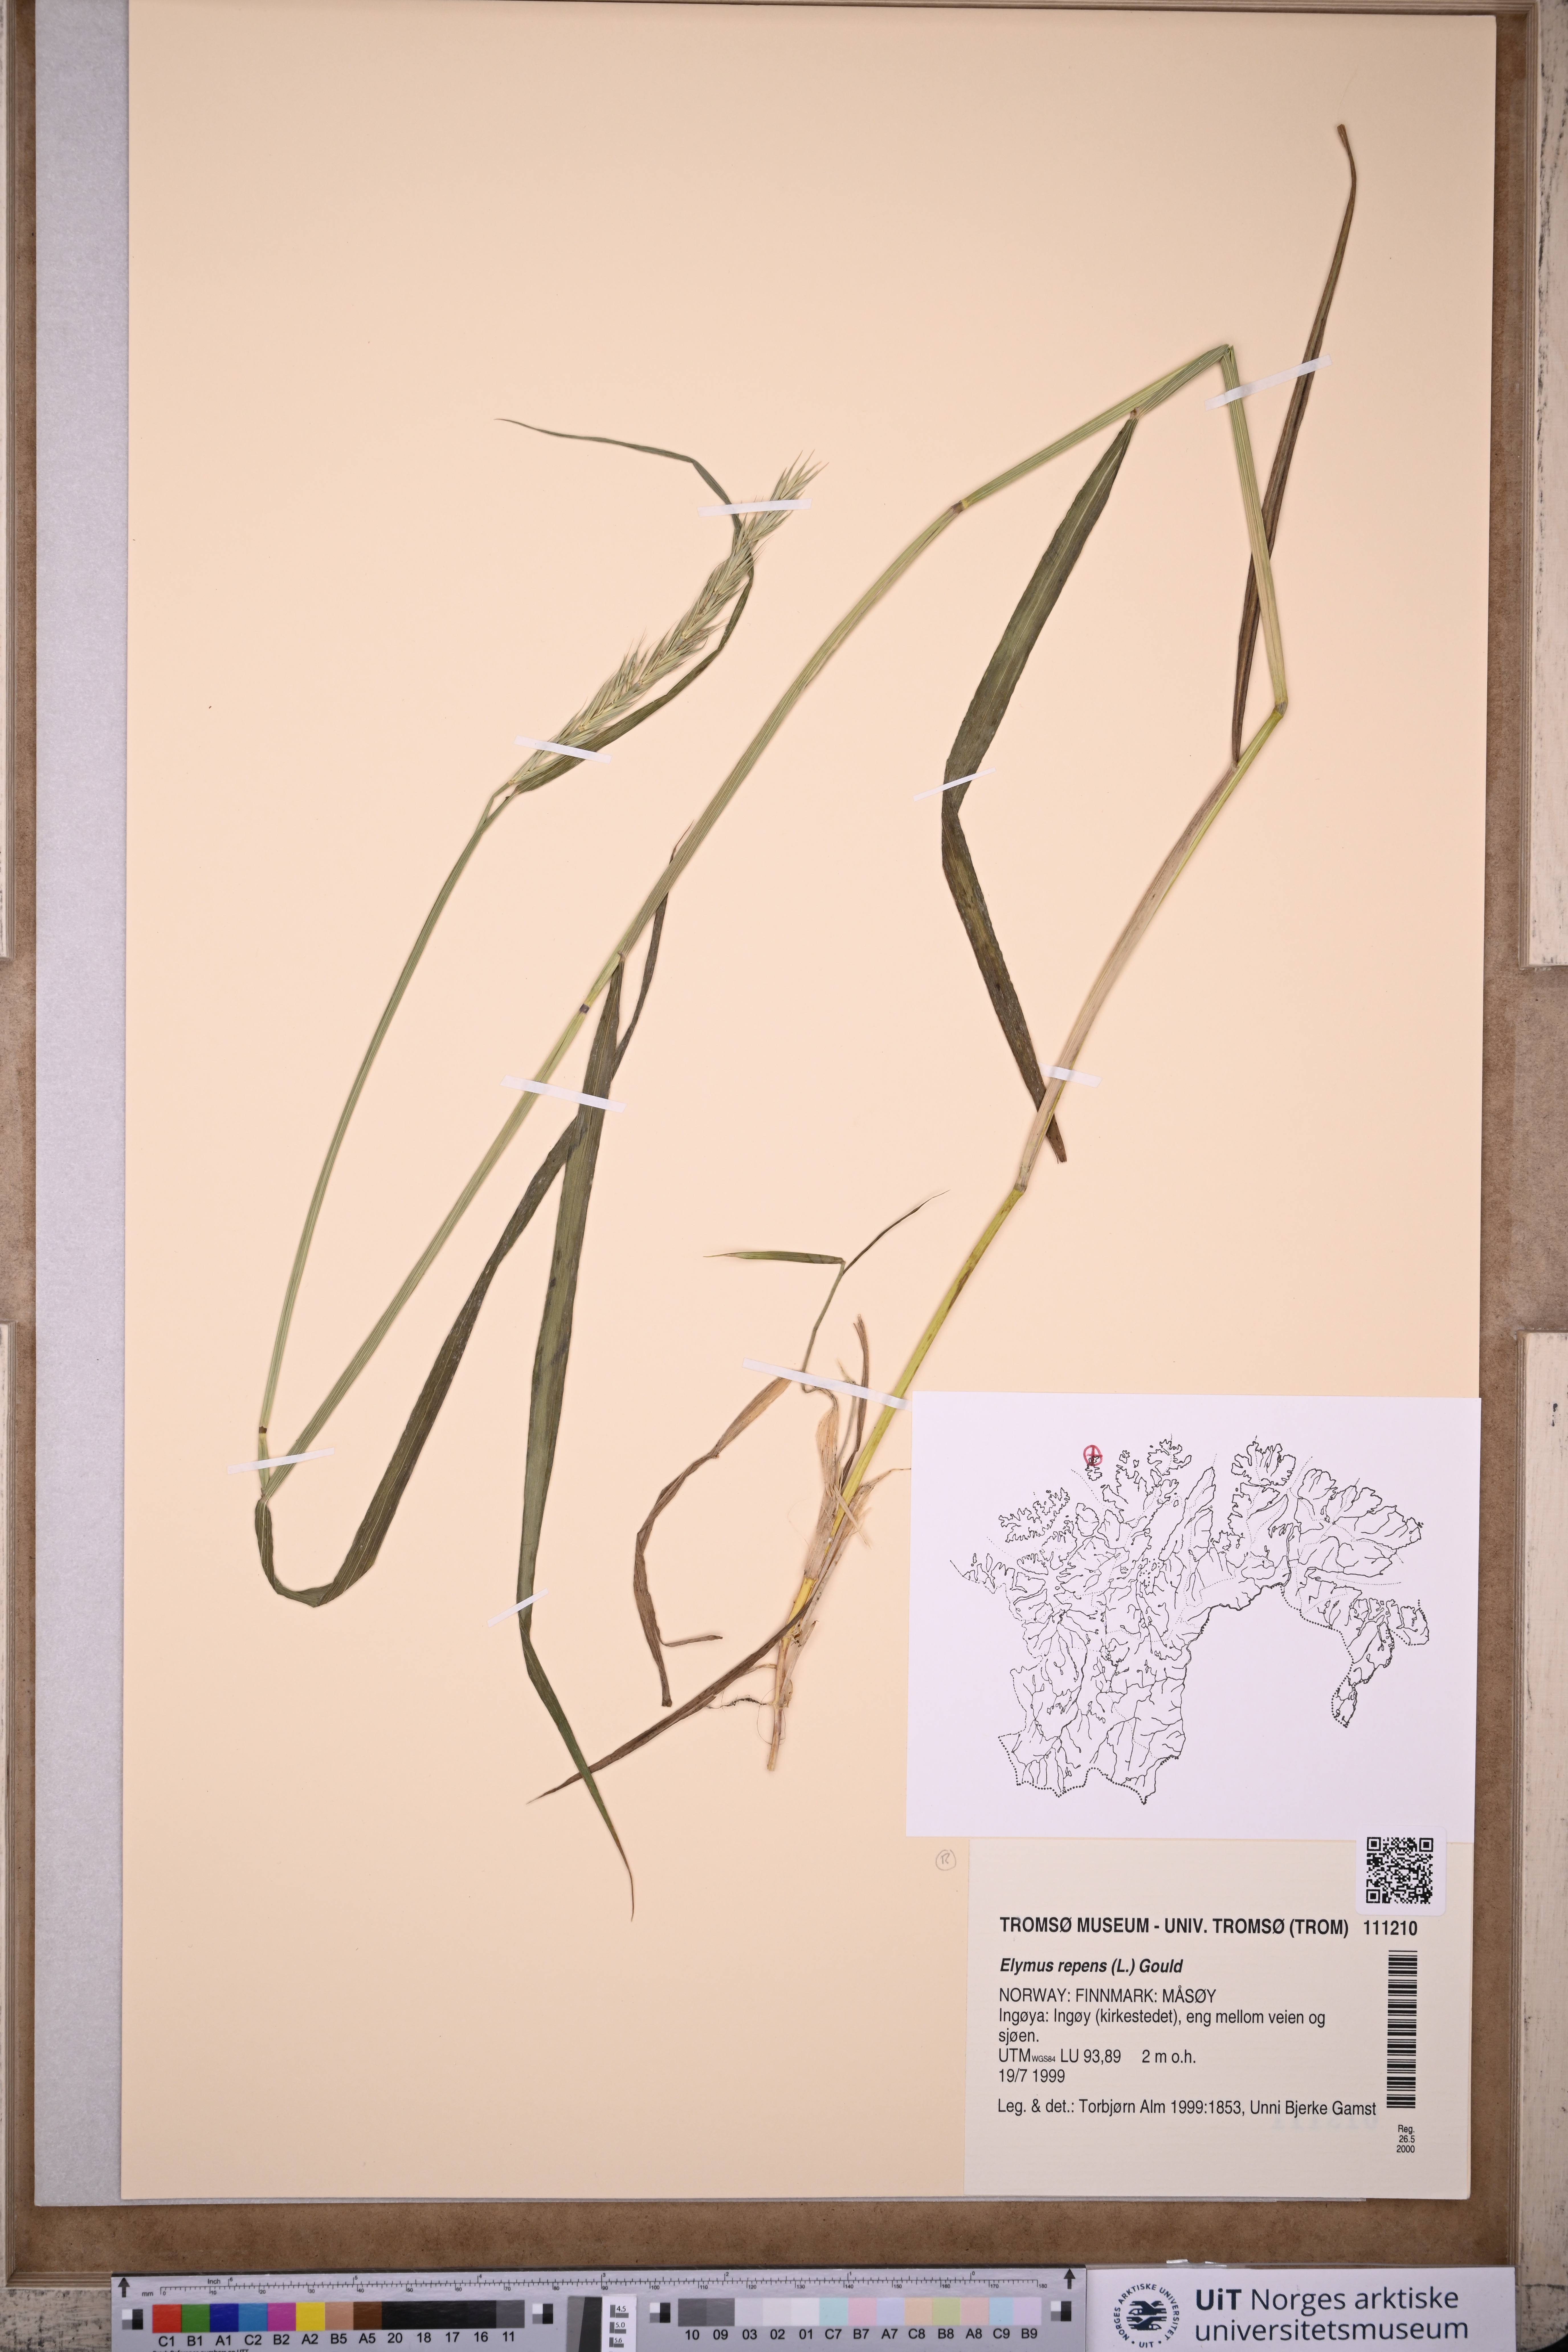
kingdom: Plantae
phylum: Tracheophyta
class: Liliopsida
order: Poales
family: Poaceae
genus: Elymus
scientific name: Elymus repens
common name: Quackgrass
